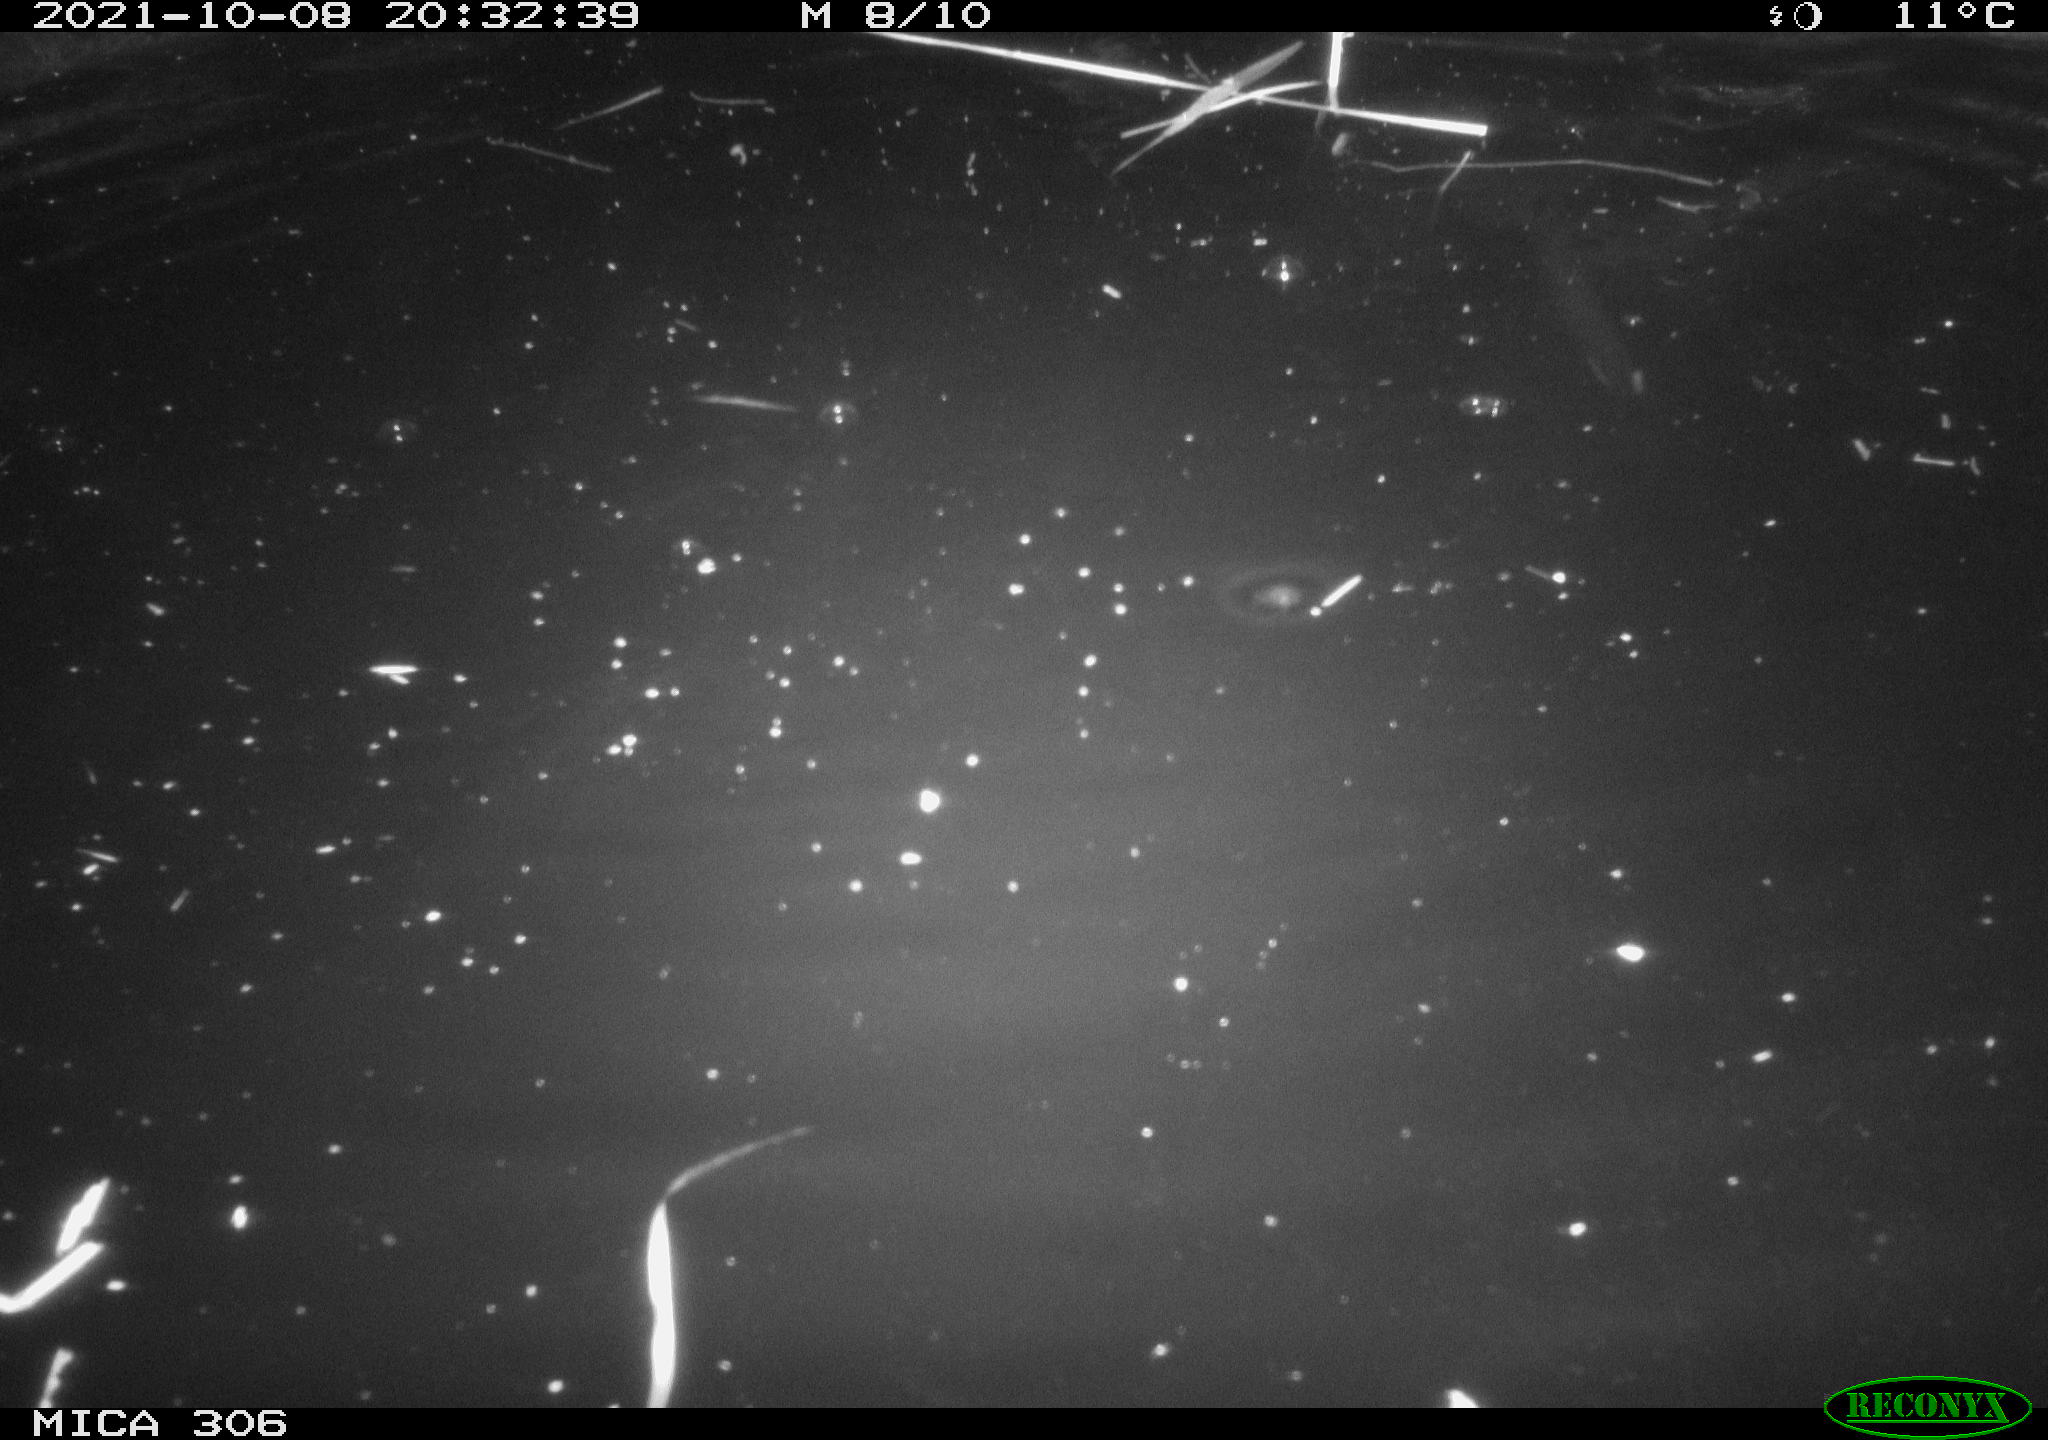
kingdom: Animalia
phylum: Chordata
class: Mammalia
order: Rodentia
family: Cricetidae
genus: Ondatra
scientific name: Ondatra zibethicus
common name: Muskrat
